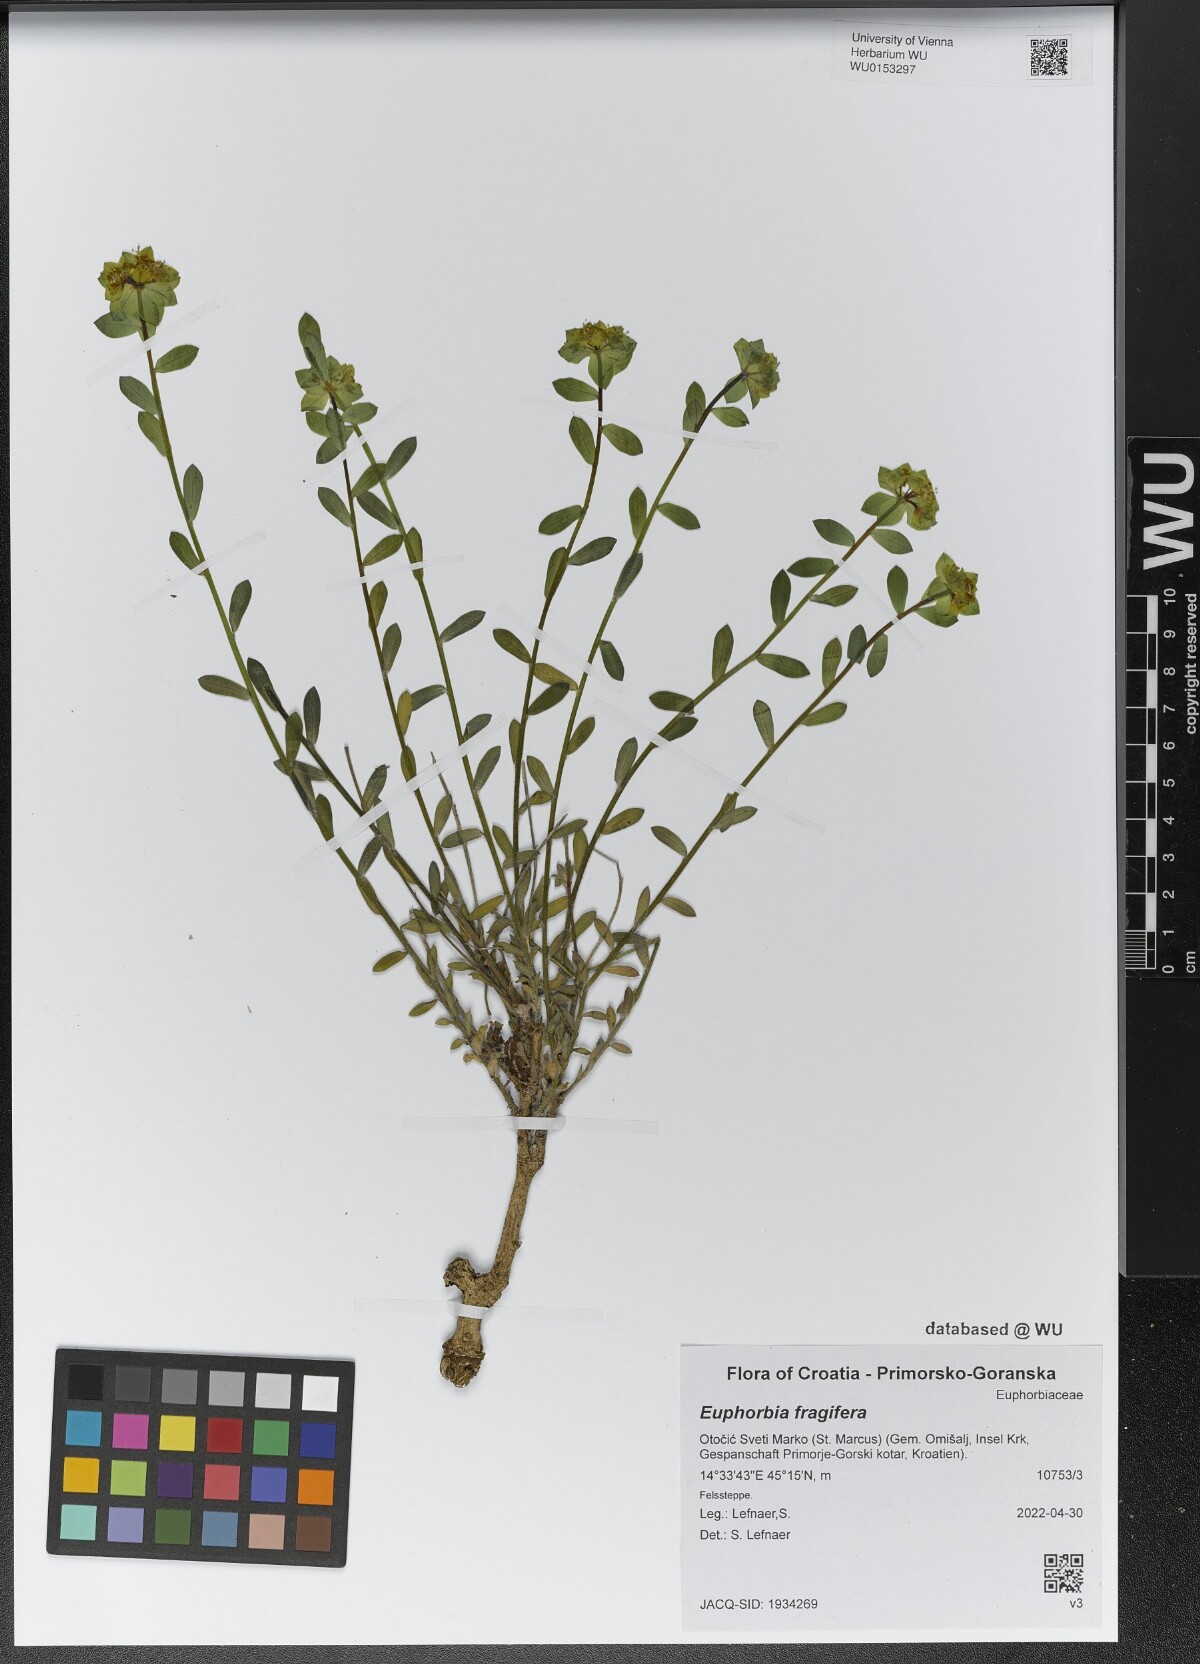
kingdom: Plantae
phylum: Tracheophyta
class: Magnoliopsida
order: Malpighiales
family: Euphorbiaceae
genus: Euphorbia
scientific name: Euphorbia fragifera
